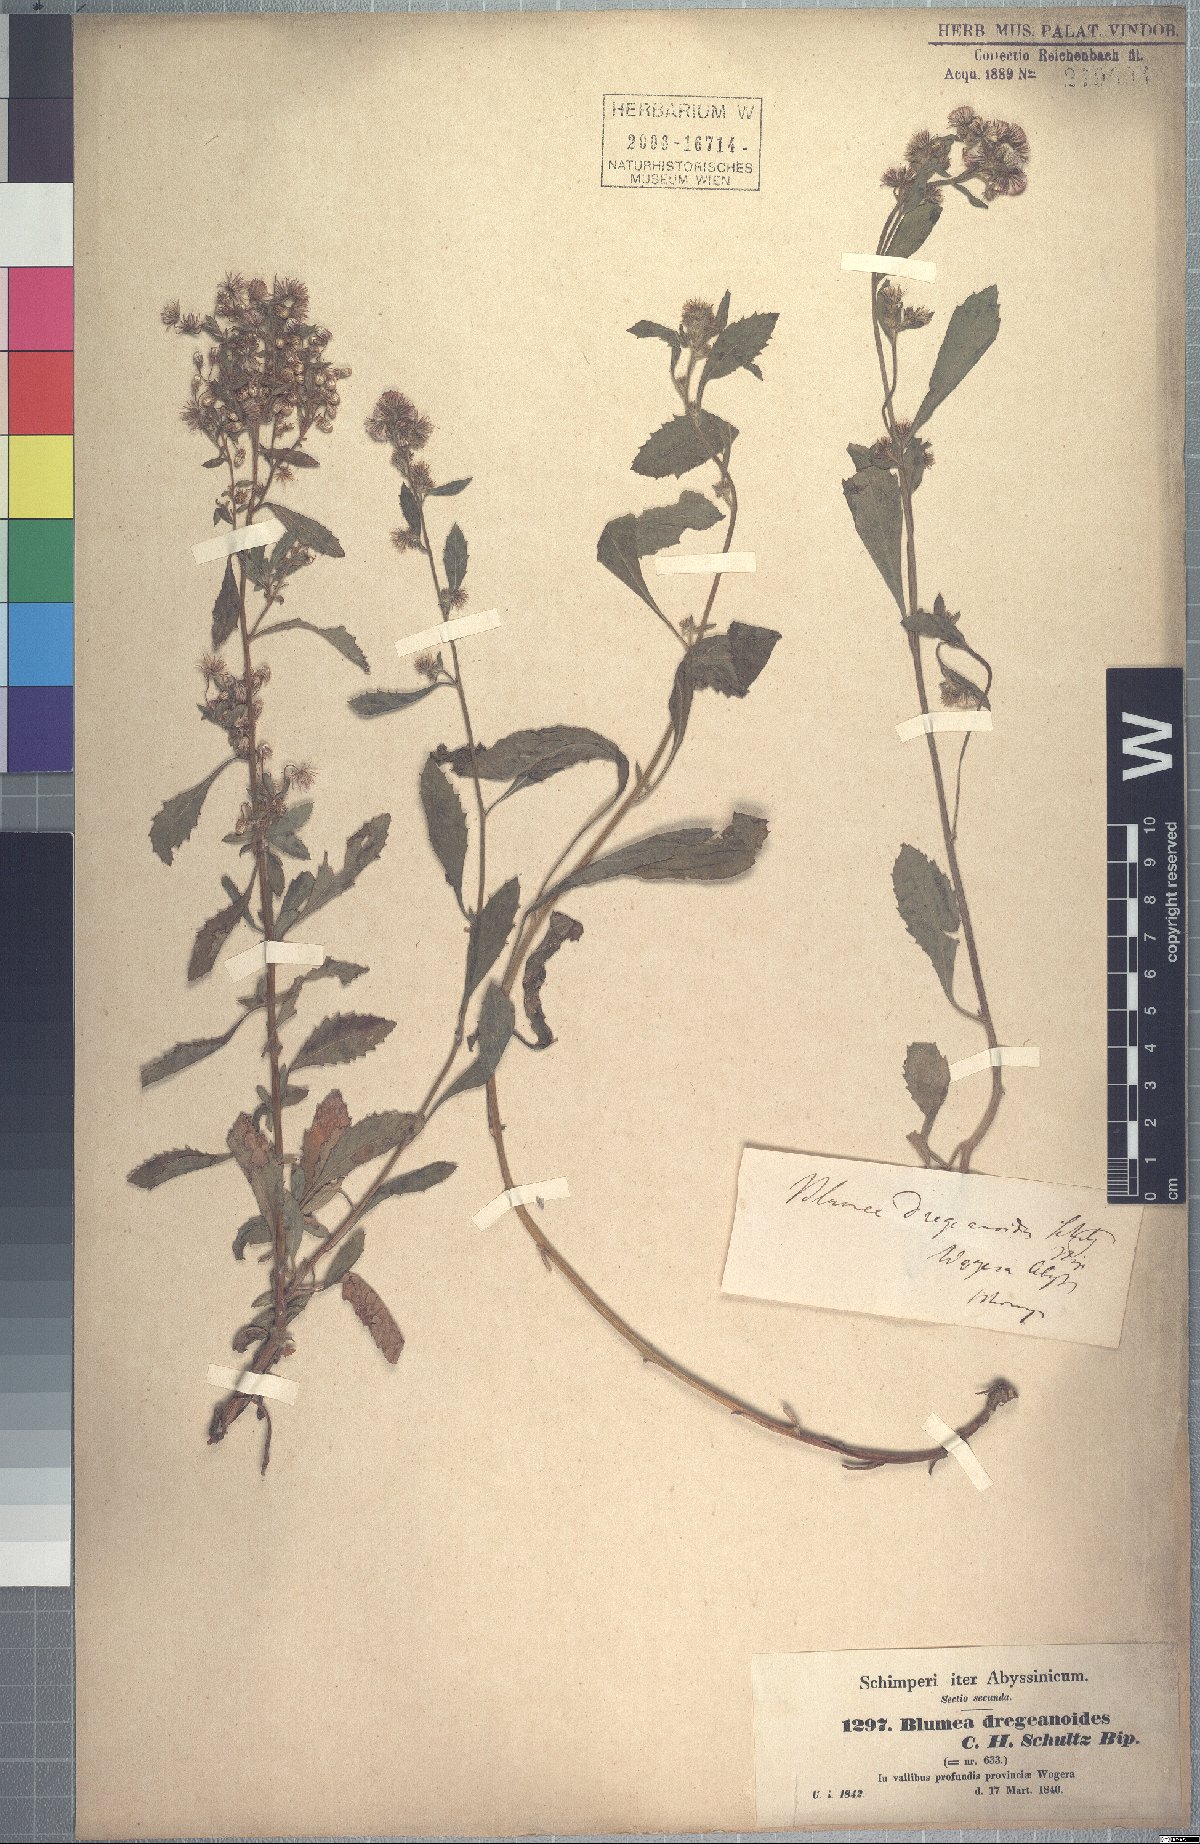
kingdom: Plantae
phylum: Tracheophyta
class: Magnoliopsida
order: Asterales
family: Asteraceae
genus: Blumea
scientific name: Blumea lacera
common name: Malay blumea
